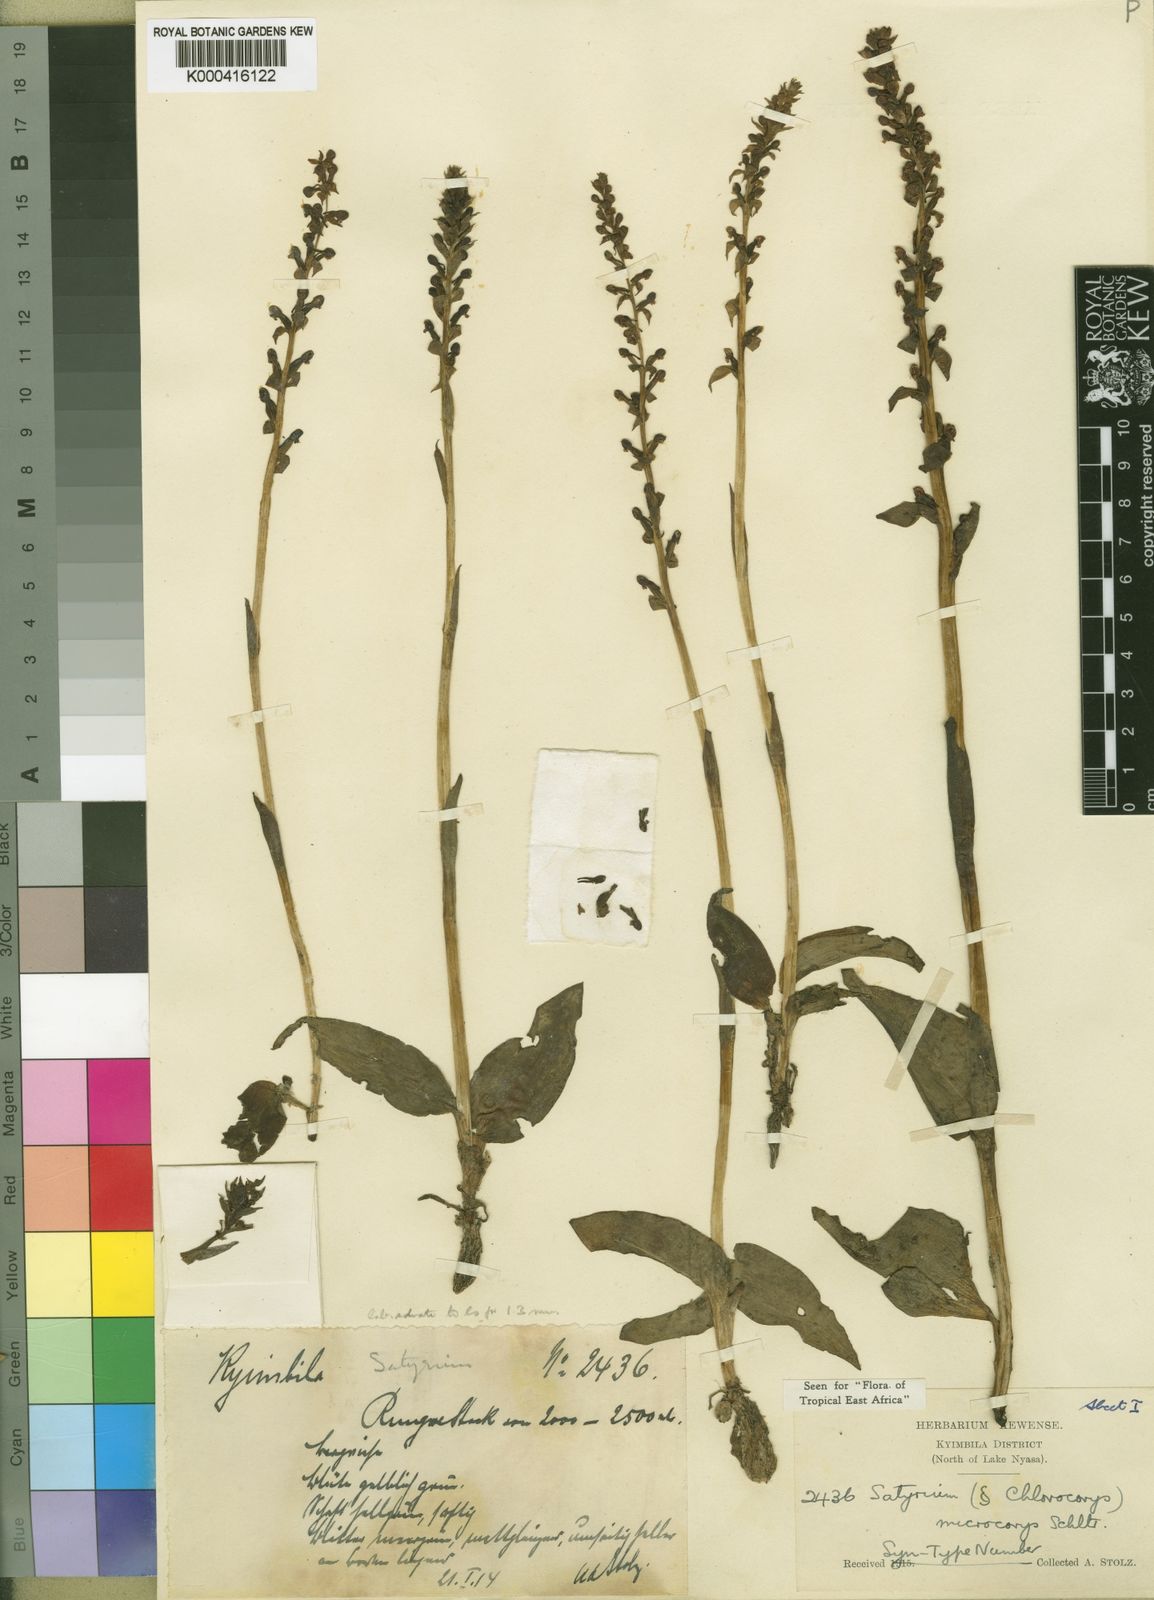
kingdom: Plantae
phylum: Tracheophyta
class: Liliopsida
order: Asparagales
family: Orchidaceae
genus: Satyrium
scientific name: Satyrium microcorys
